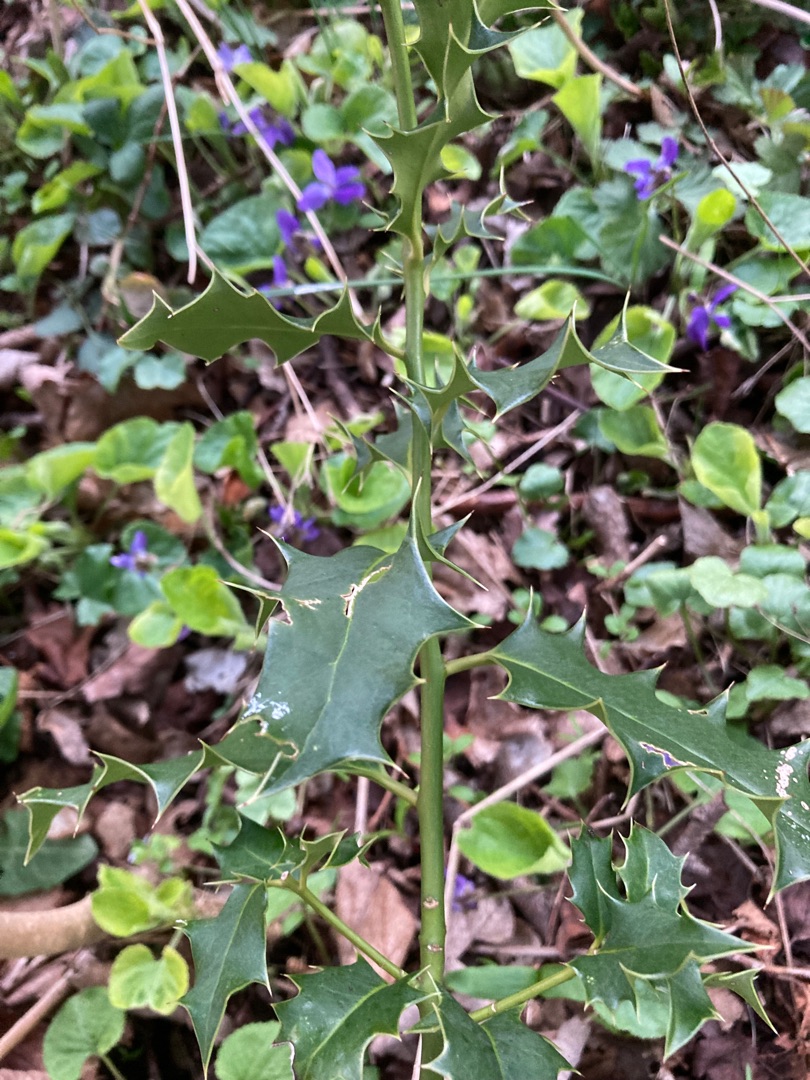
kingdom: Plantae
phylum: Tracheophyta
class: Magnoliopsida
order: Aquifoliales
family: Aquifoliaceae
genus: Ilex
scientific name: Ilex aquifolium
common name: Kristtorn
